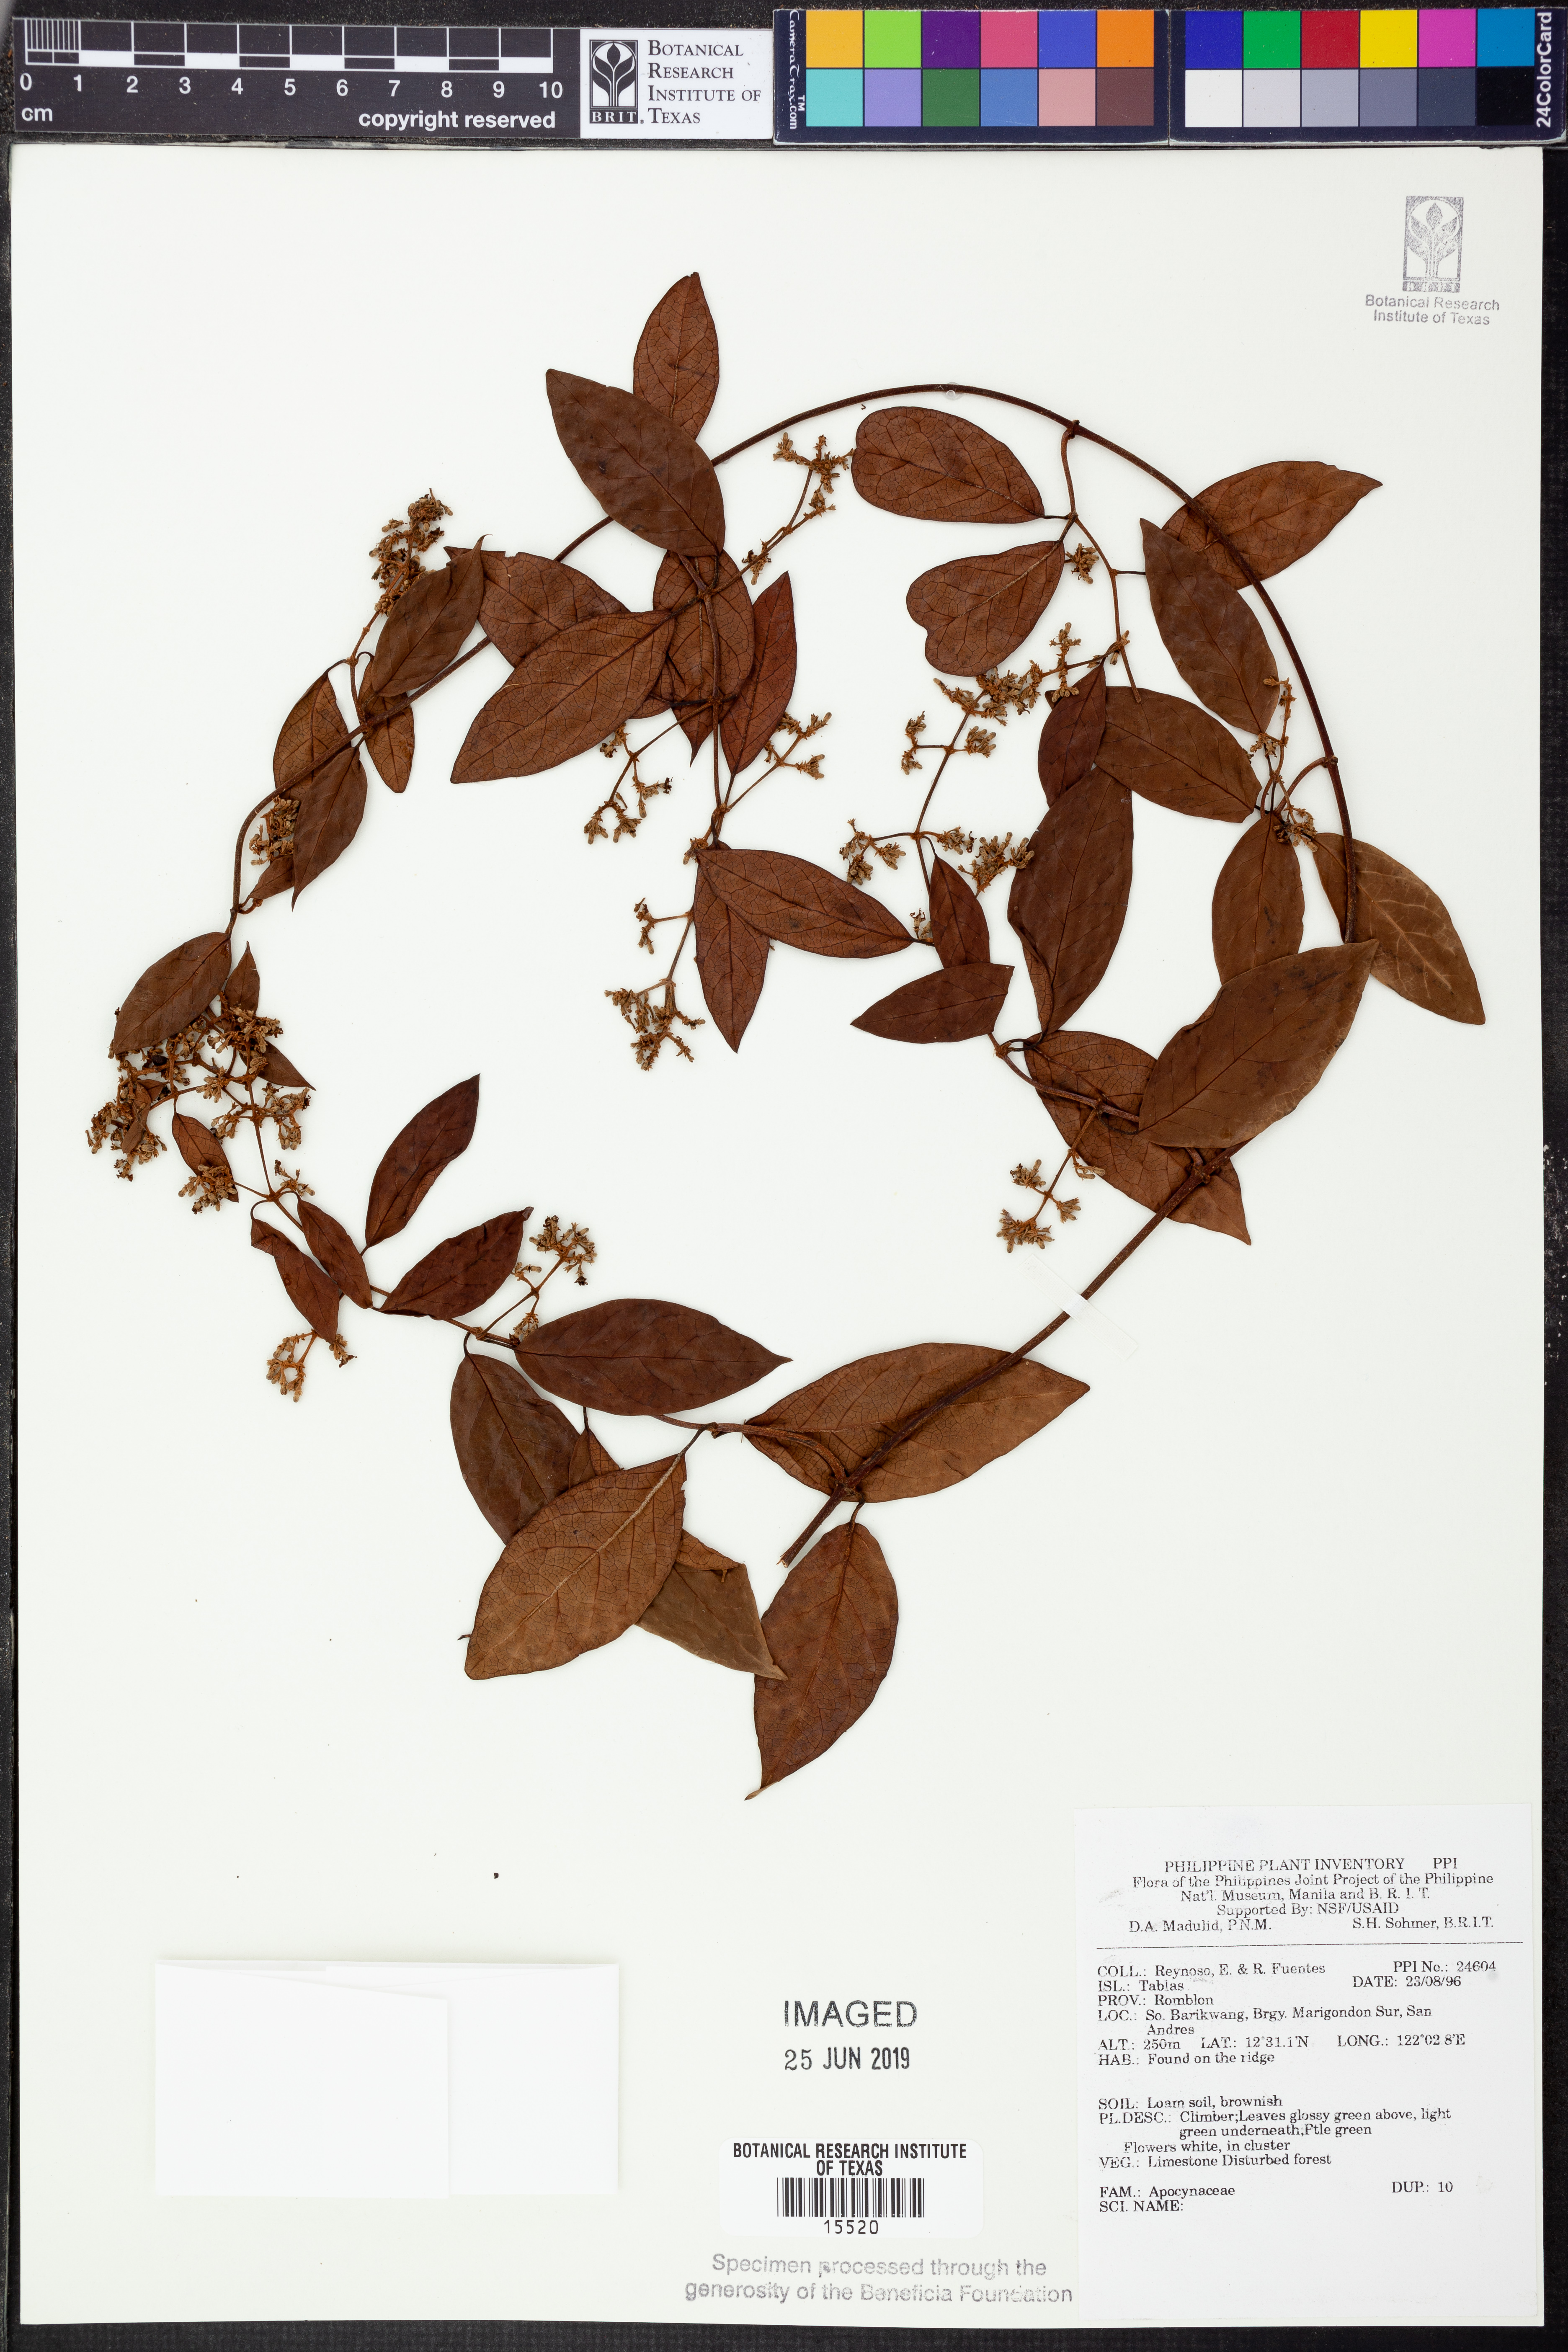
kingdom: Plantae
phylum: Tracheophyta
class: Magnoliopsida
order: Gentianales
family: Apocynaceae
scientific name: Apocynaceae
